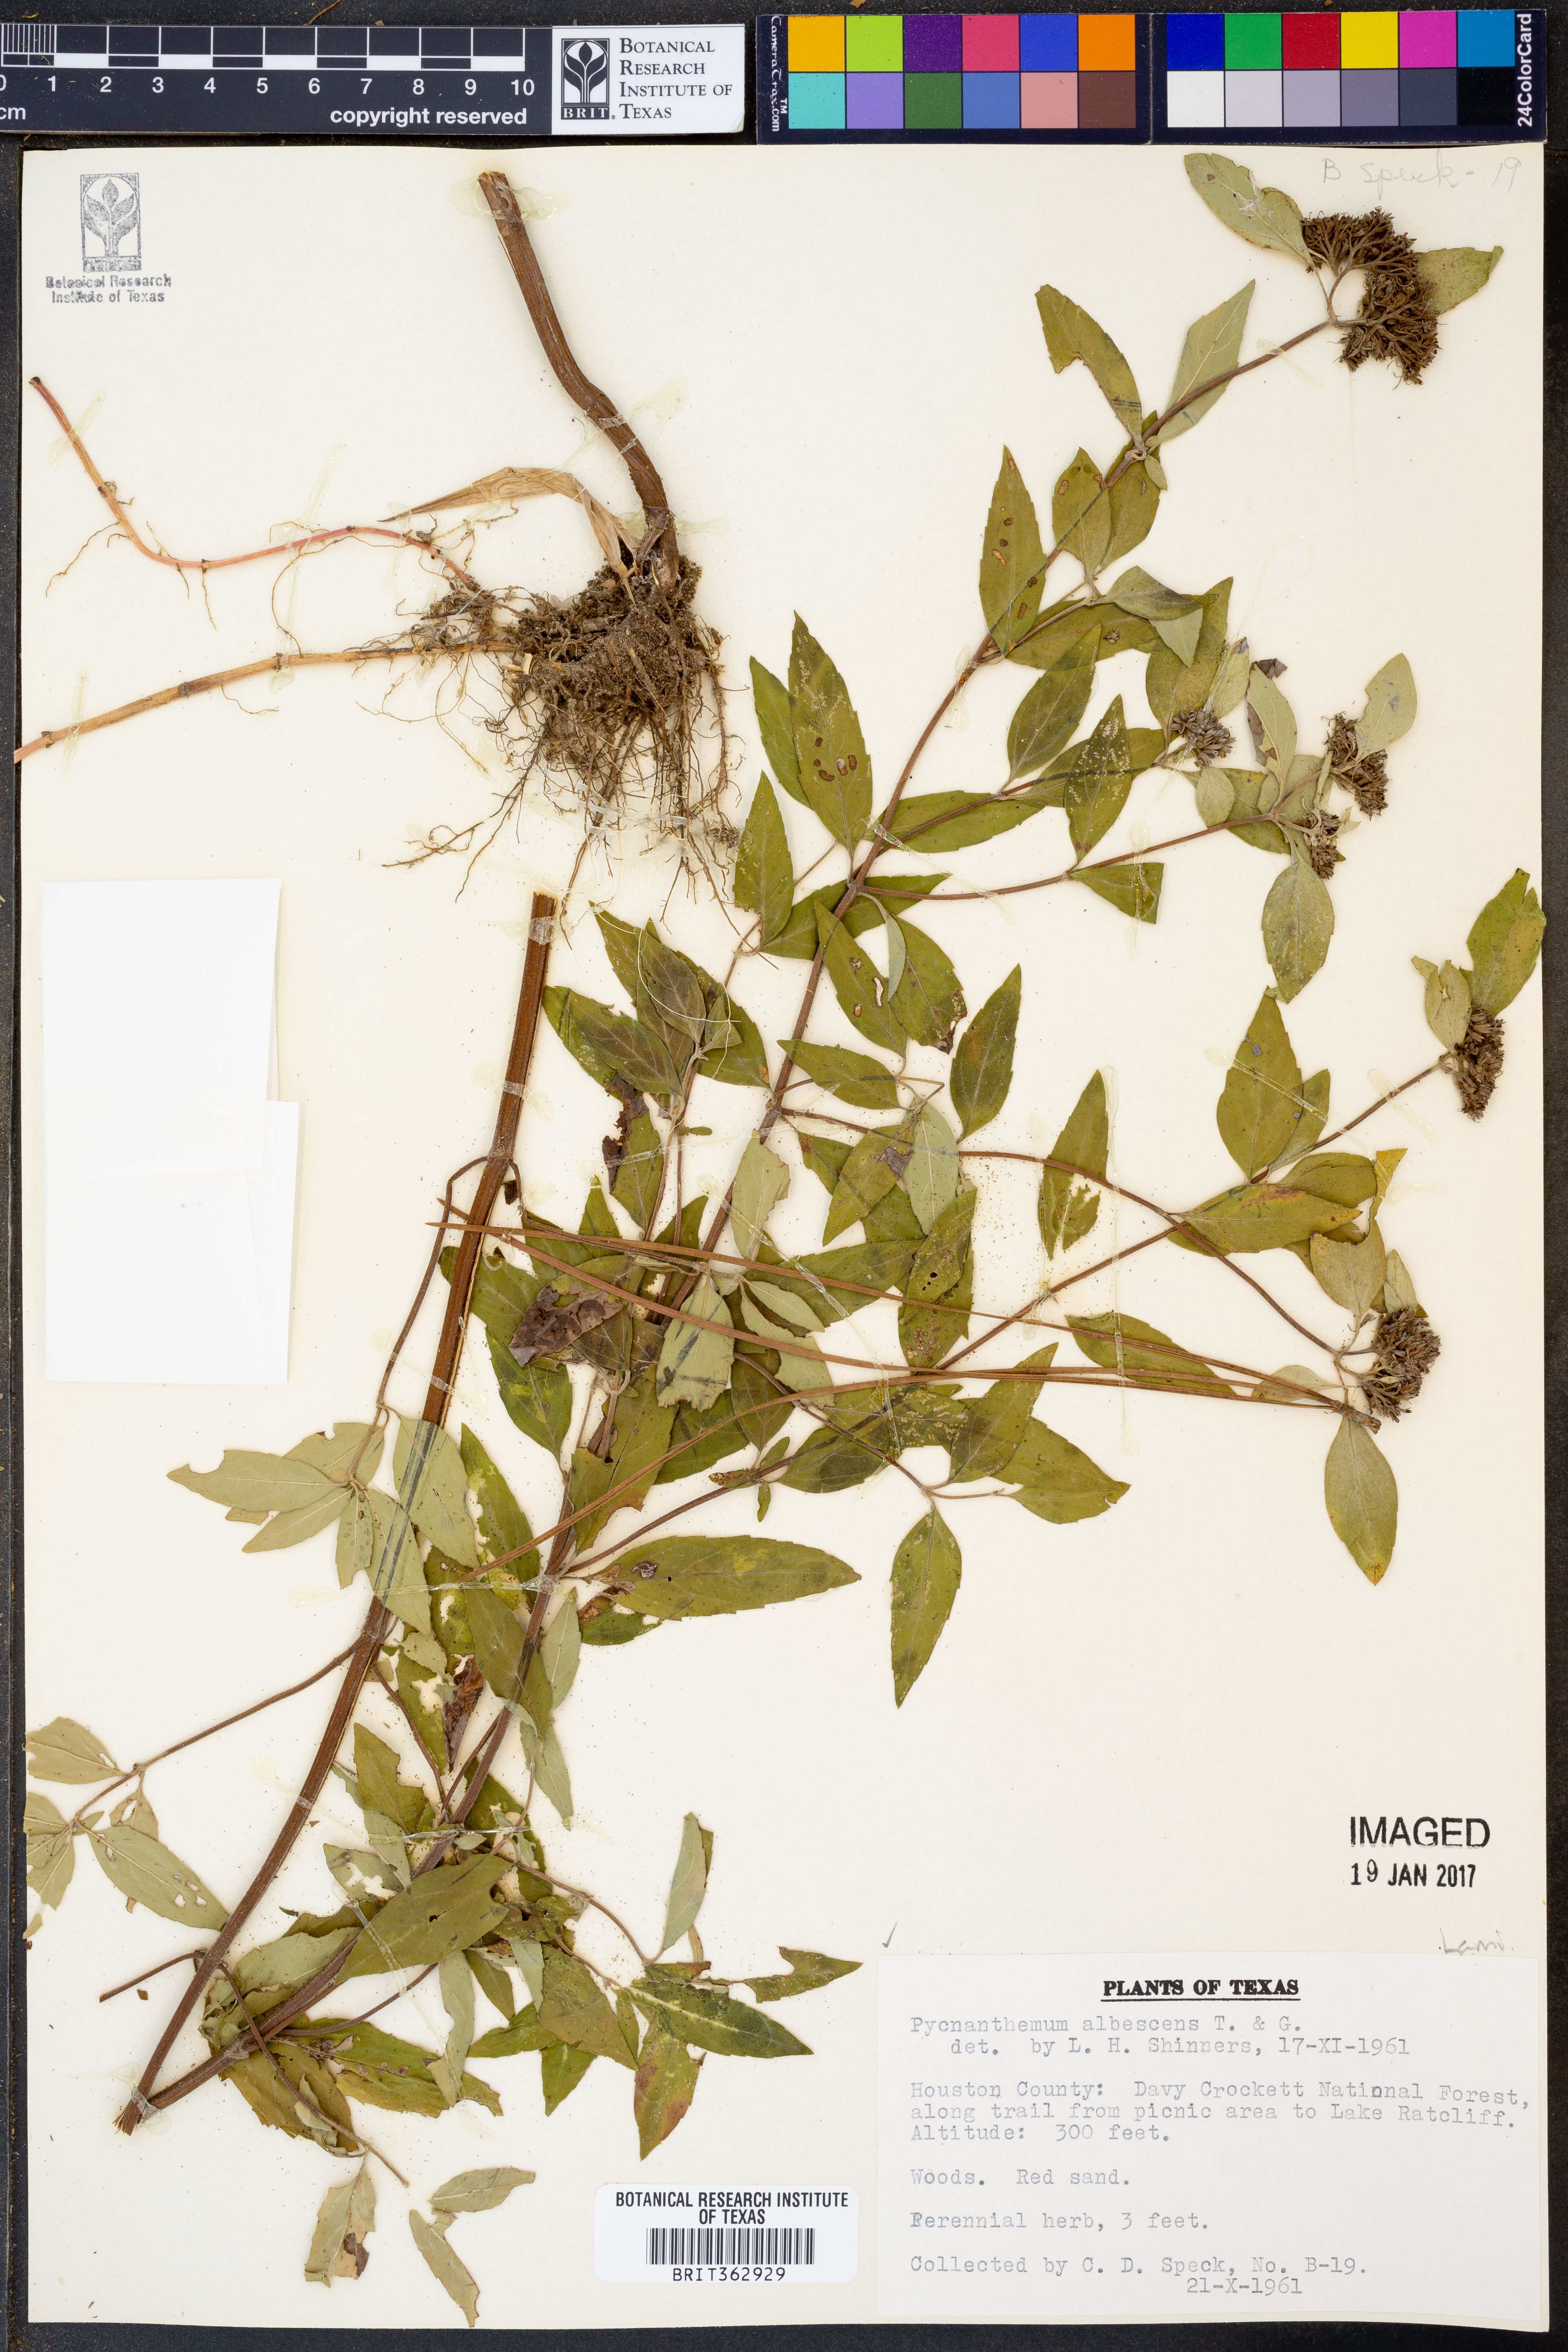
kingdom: Plantae
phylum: Tracheophyta
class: Magnoliopsida
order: Lamiales
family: Lamiaceae
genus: Pycnanthemum
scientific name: Pycnanthemum albescens
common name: White-leaf mountain-mint
